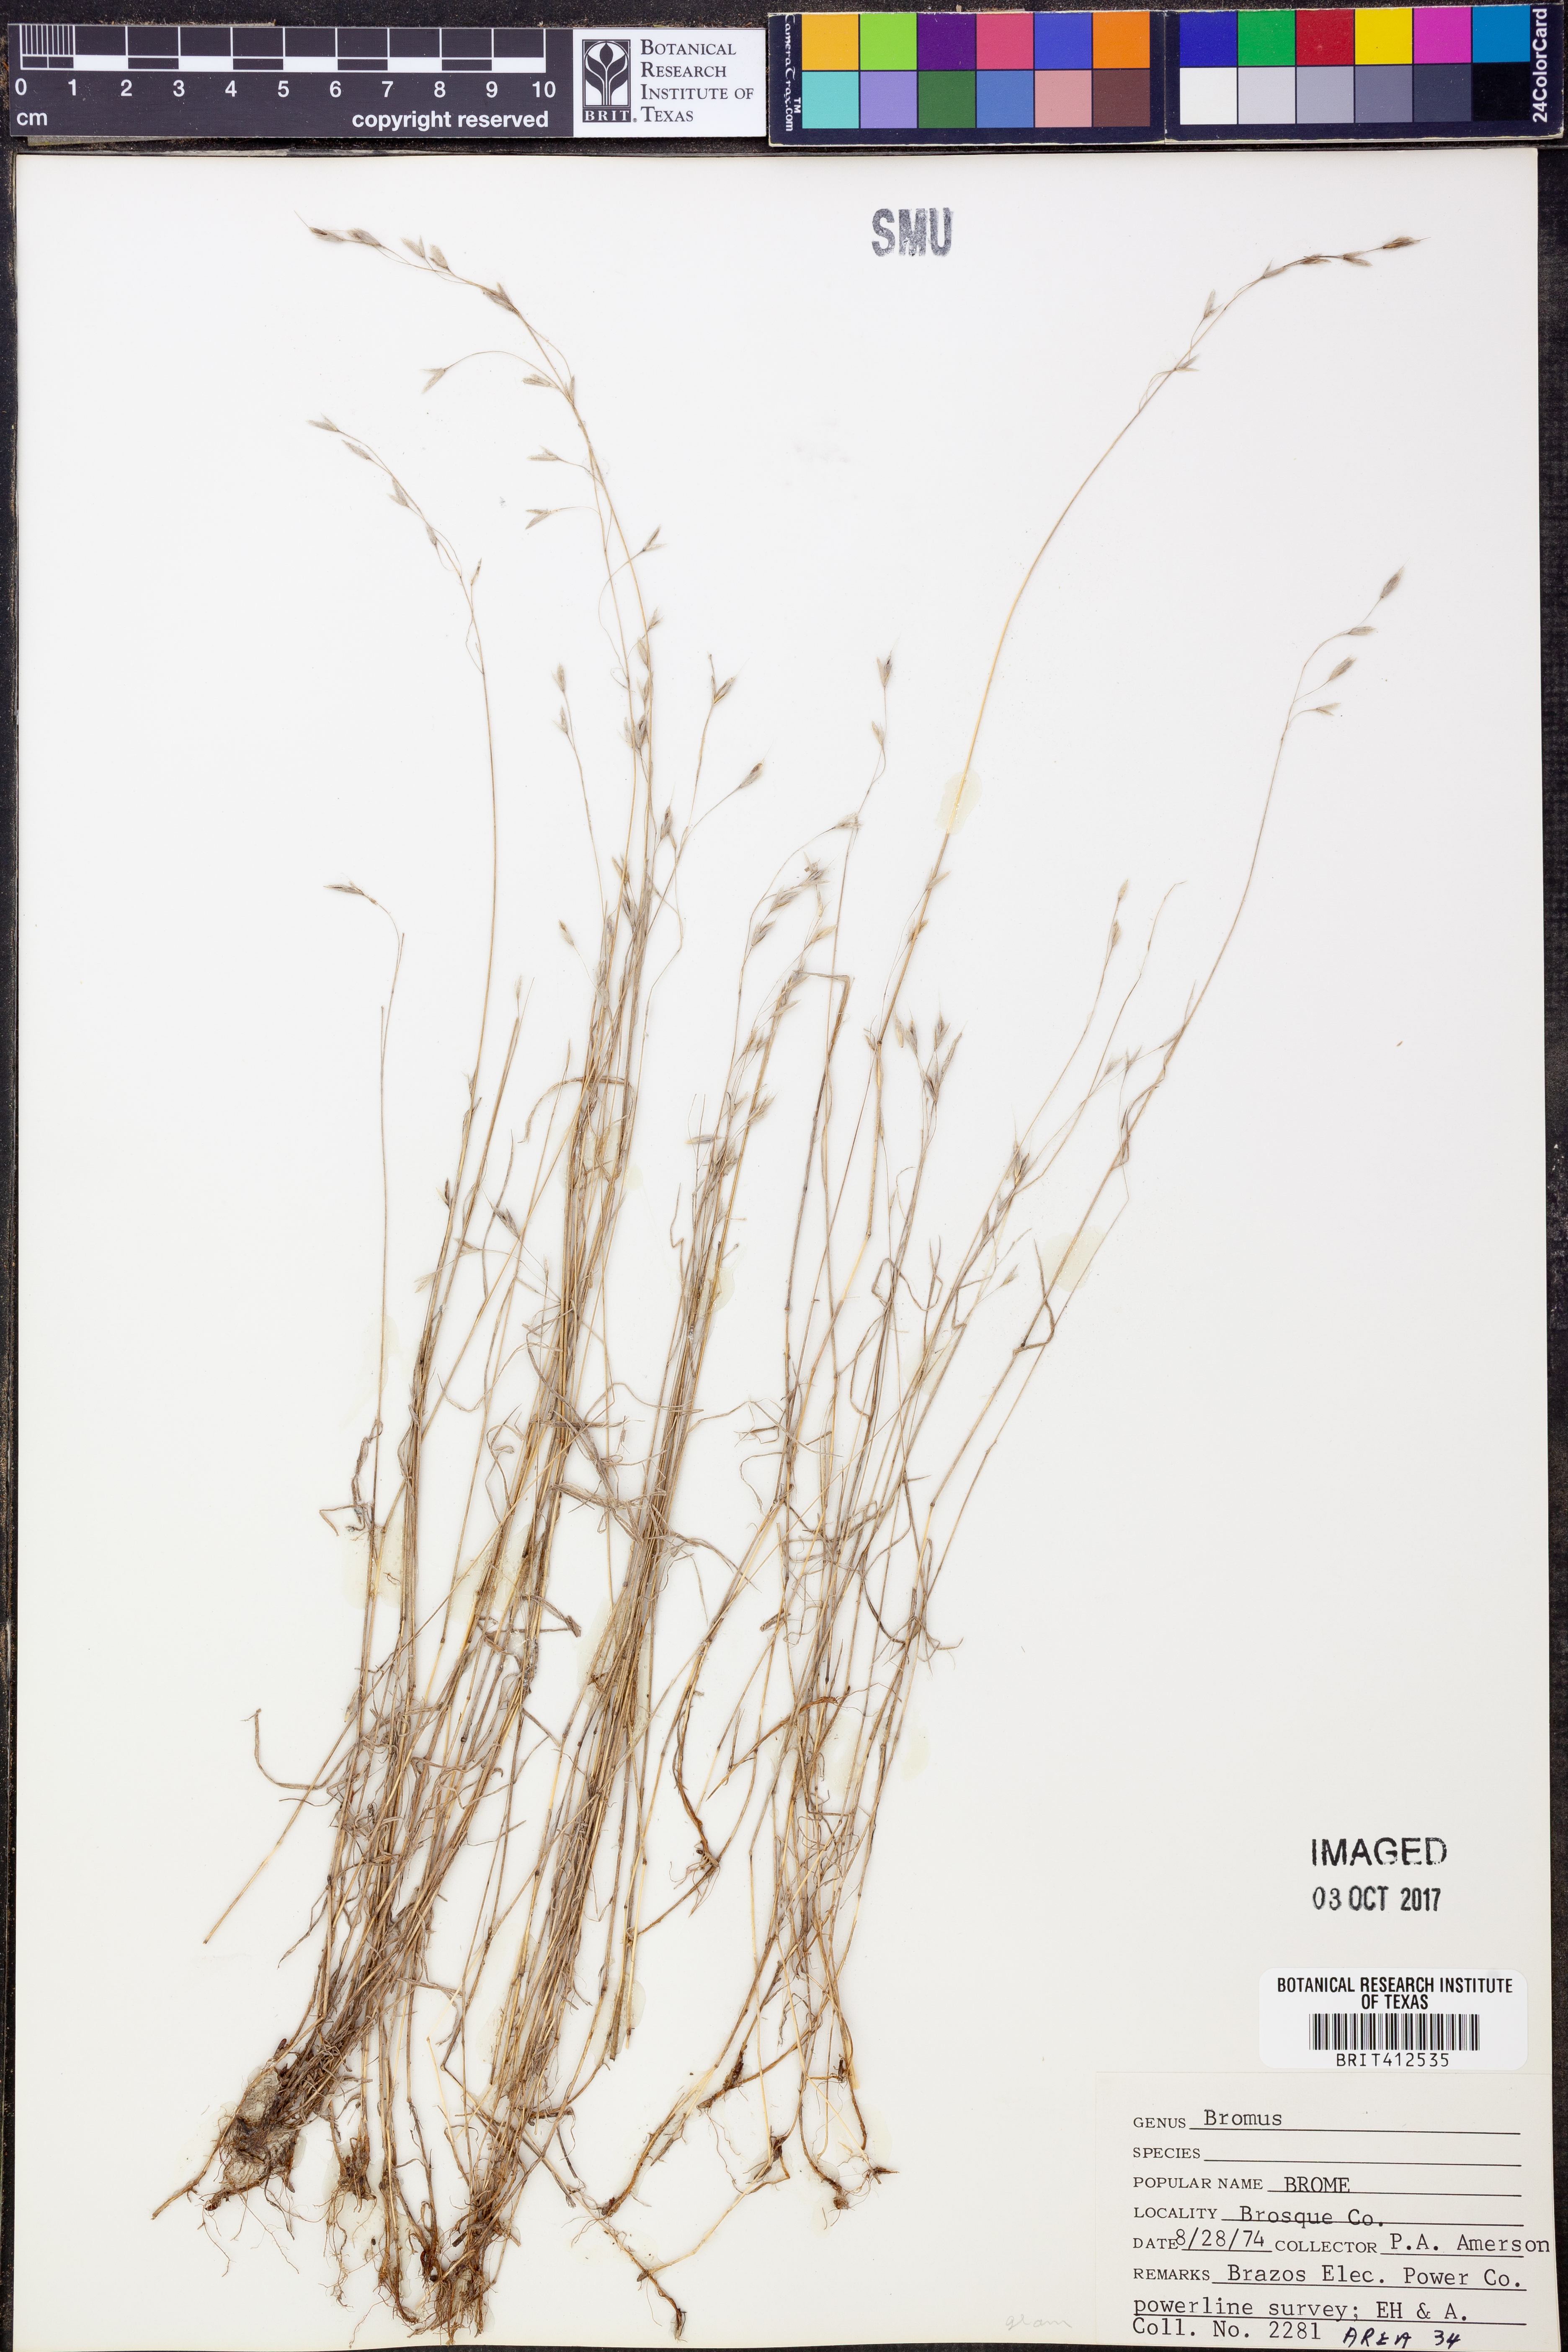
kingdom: Plantae
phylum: Tracheophyta
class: Liliopsida
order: Poales
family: Poaceae
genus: Bromus
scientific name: Bromus
